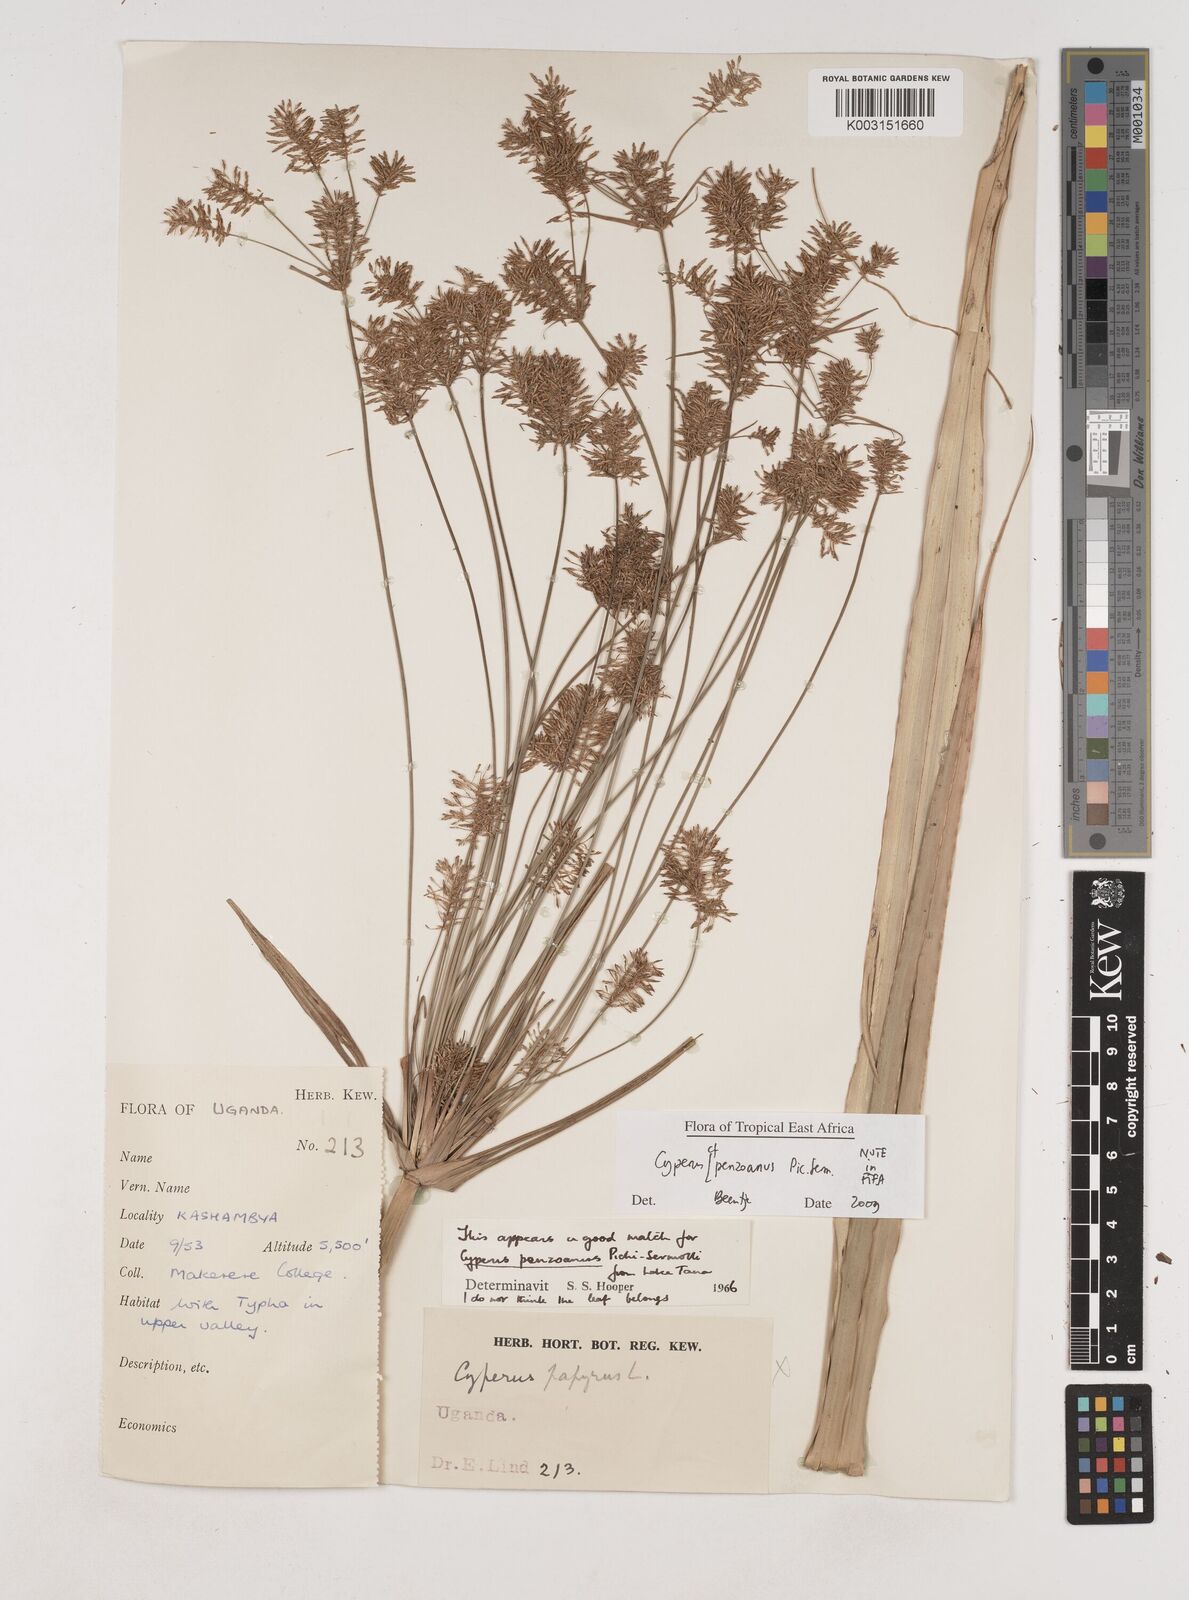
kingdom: Plantae
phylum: Tracheophyta
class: Liliopsida
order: Poales
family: Cyperaceae
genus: Cyperus
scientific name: Cyperus penzoanus
